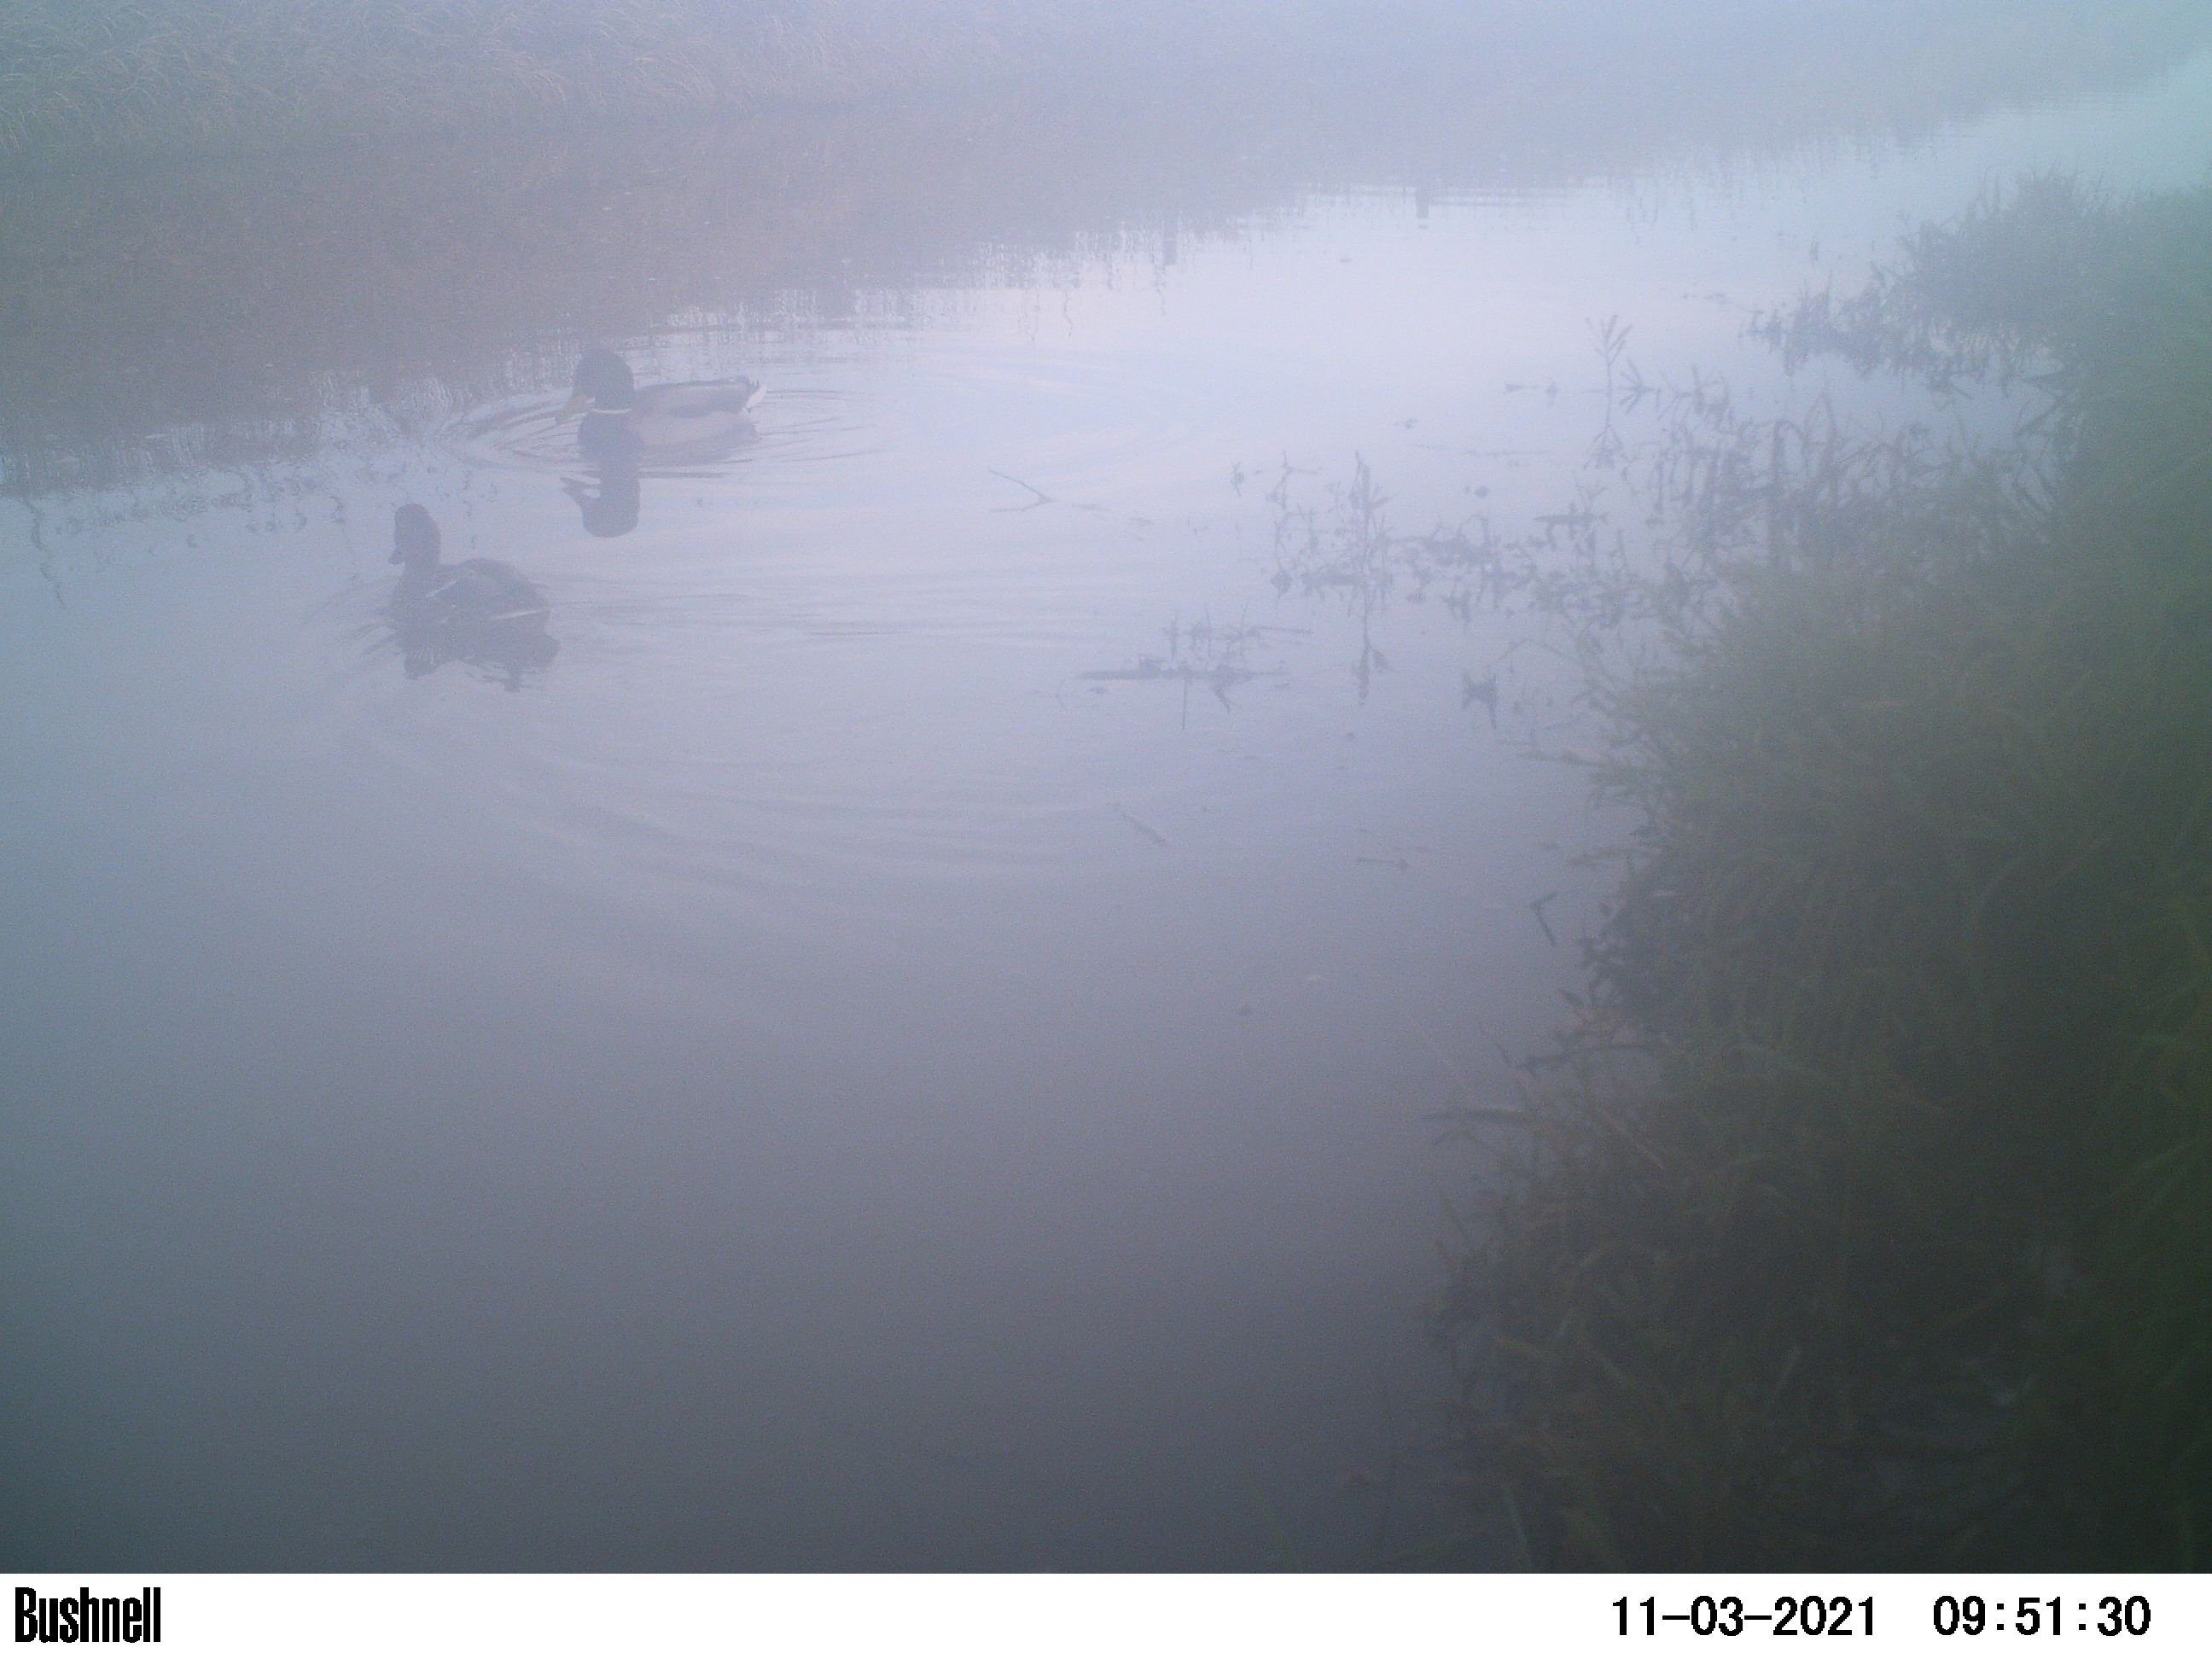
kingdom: Animalia
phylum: Chordata
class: Aves
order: Anseriformes
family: Anatidae
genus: Anas
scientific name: Anas
